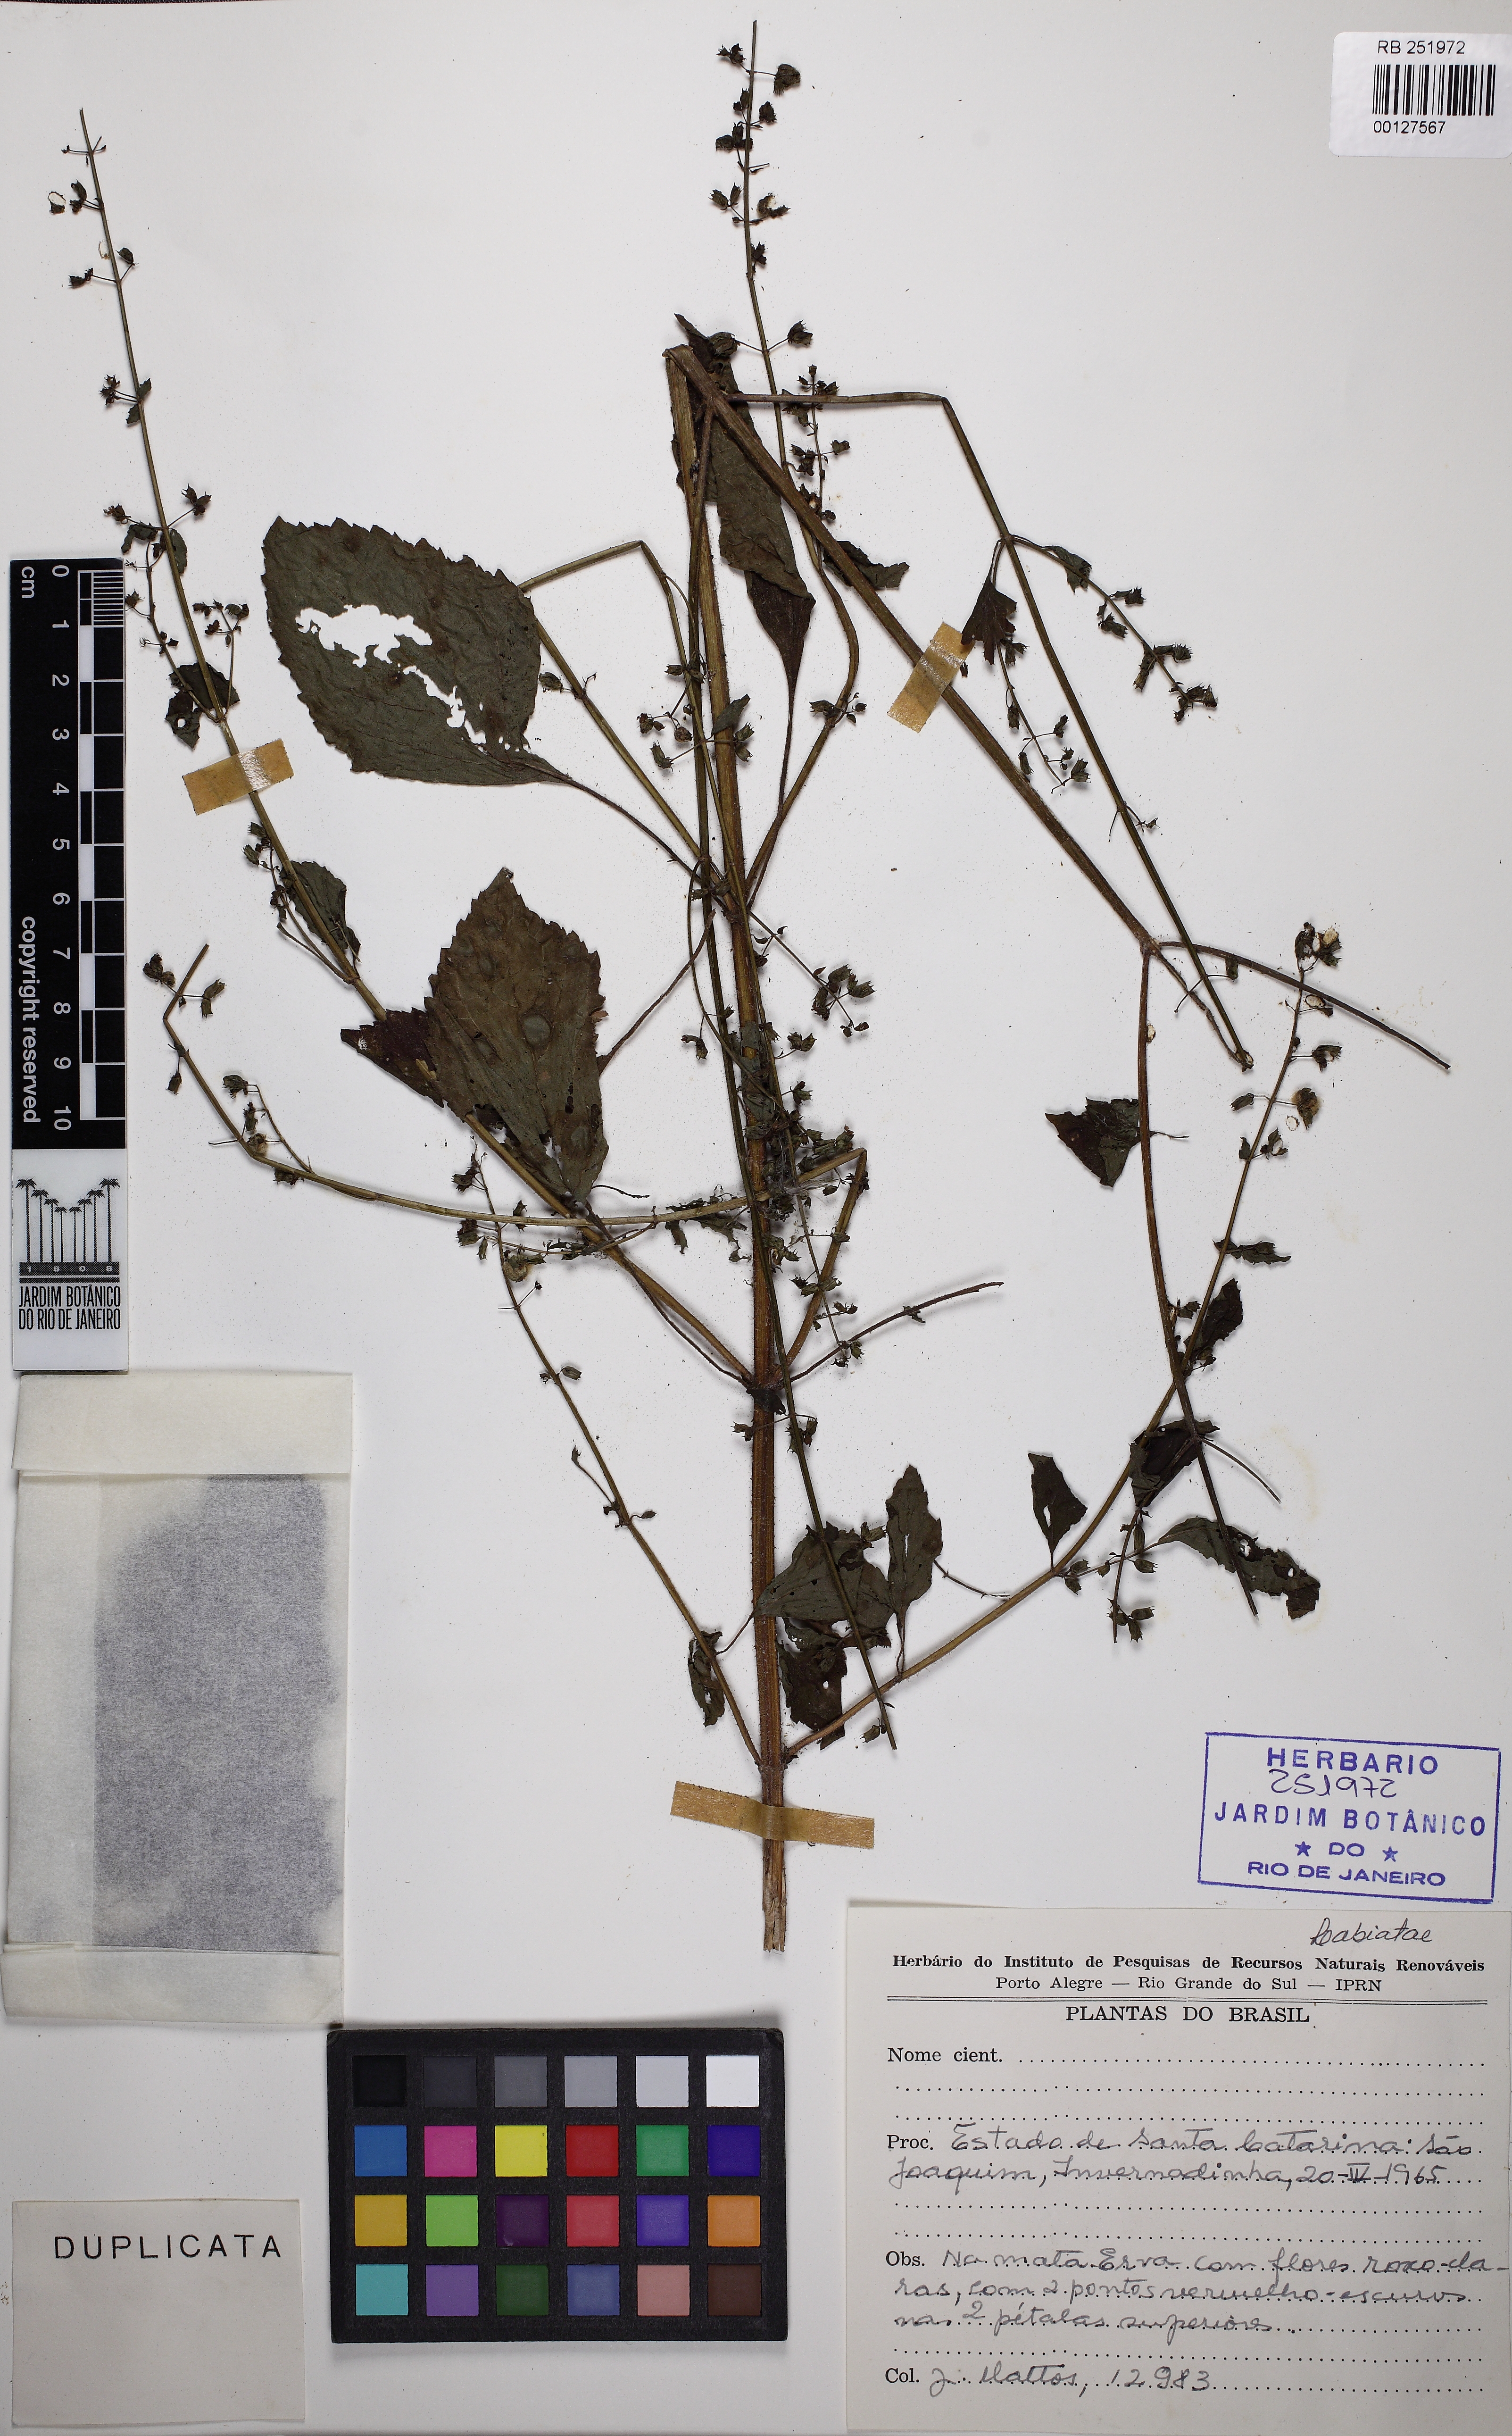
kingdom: Plantae
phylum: Tracheophyta
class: Magnoliopsida
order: Lamiales
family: Lamiaceae
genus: Mesosphaerum
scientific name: Mesosphaerum
